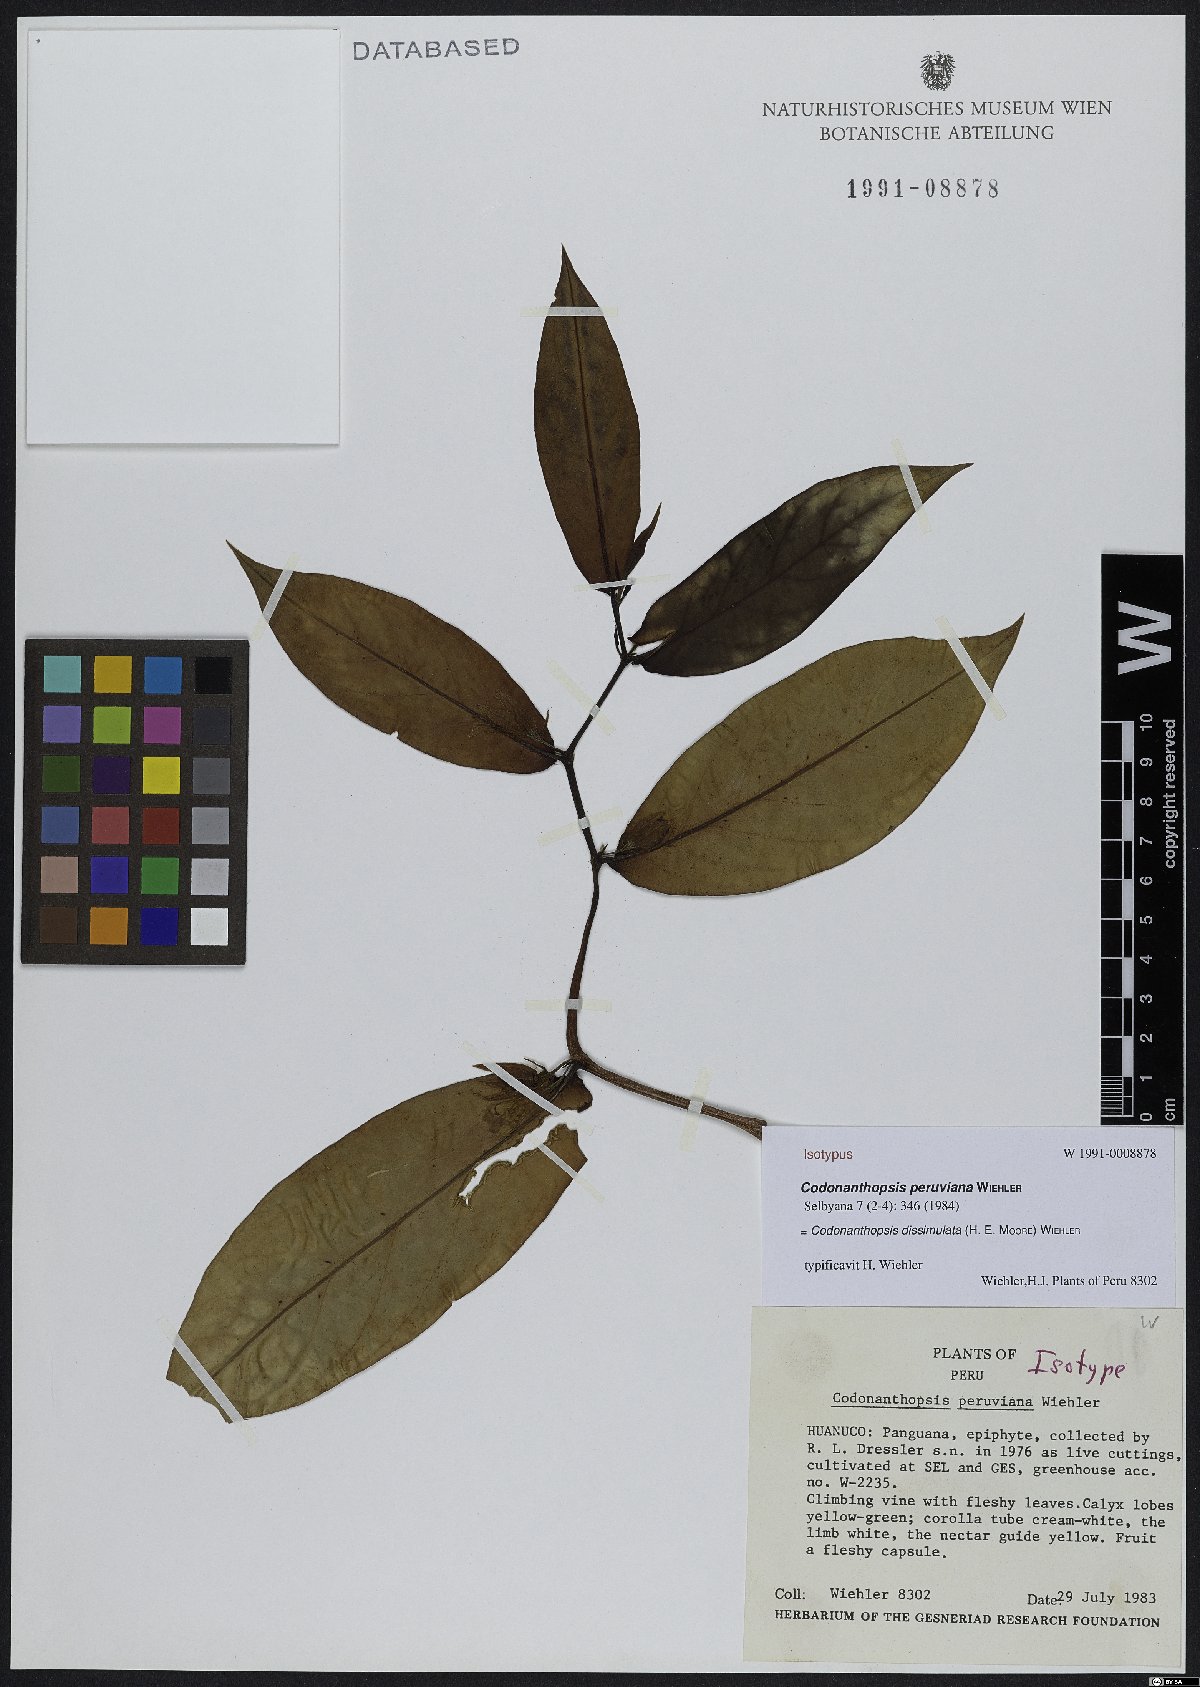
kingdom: Plantae
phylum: Tracheophyta
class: Magnoliopsida
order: Lamiales
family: Gesneriaceae
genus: Codonanthopsis
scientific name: Codonanthopsis dissimulata
